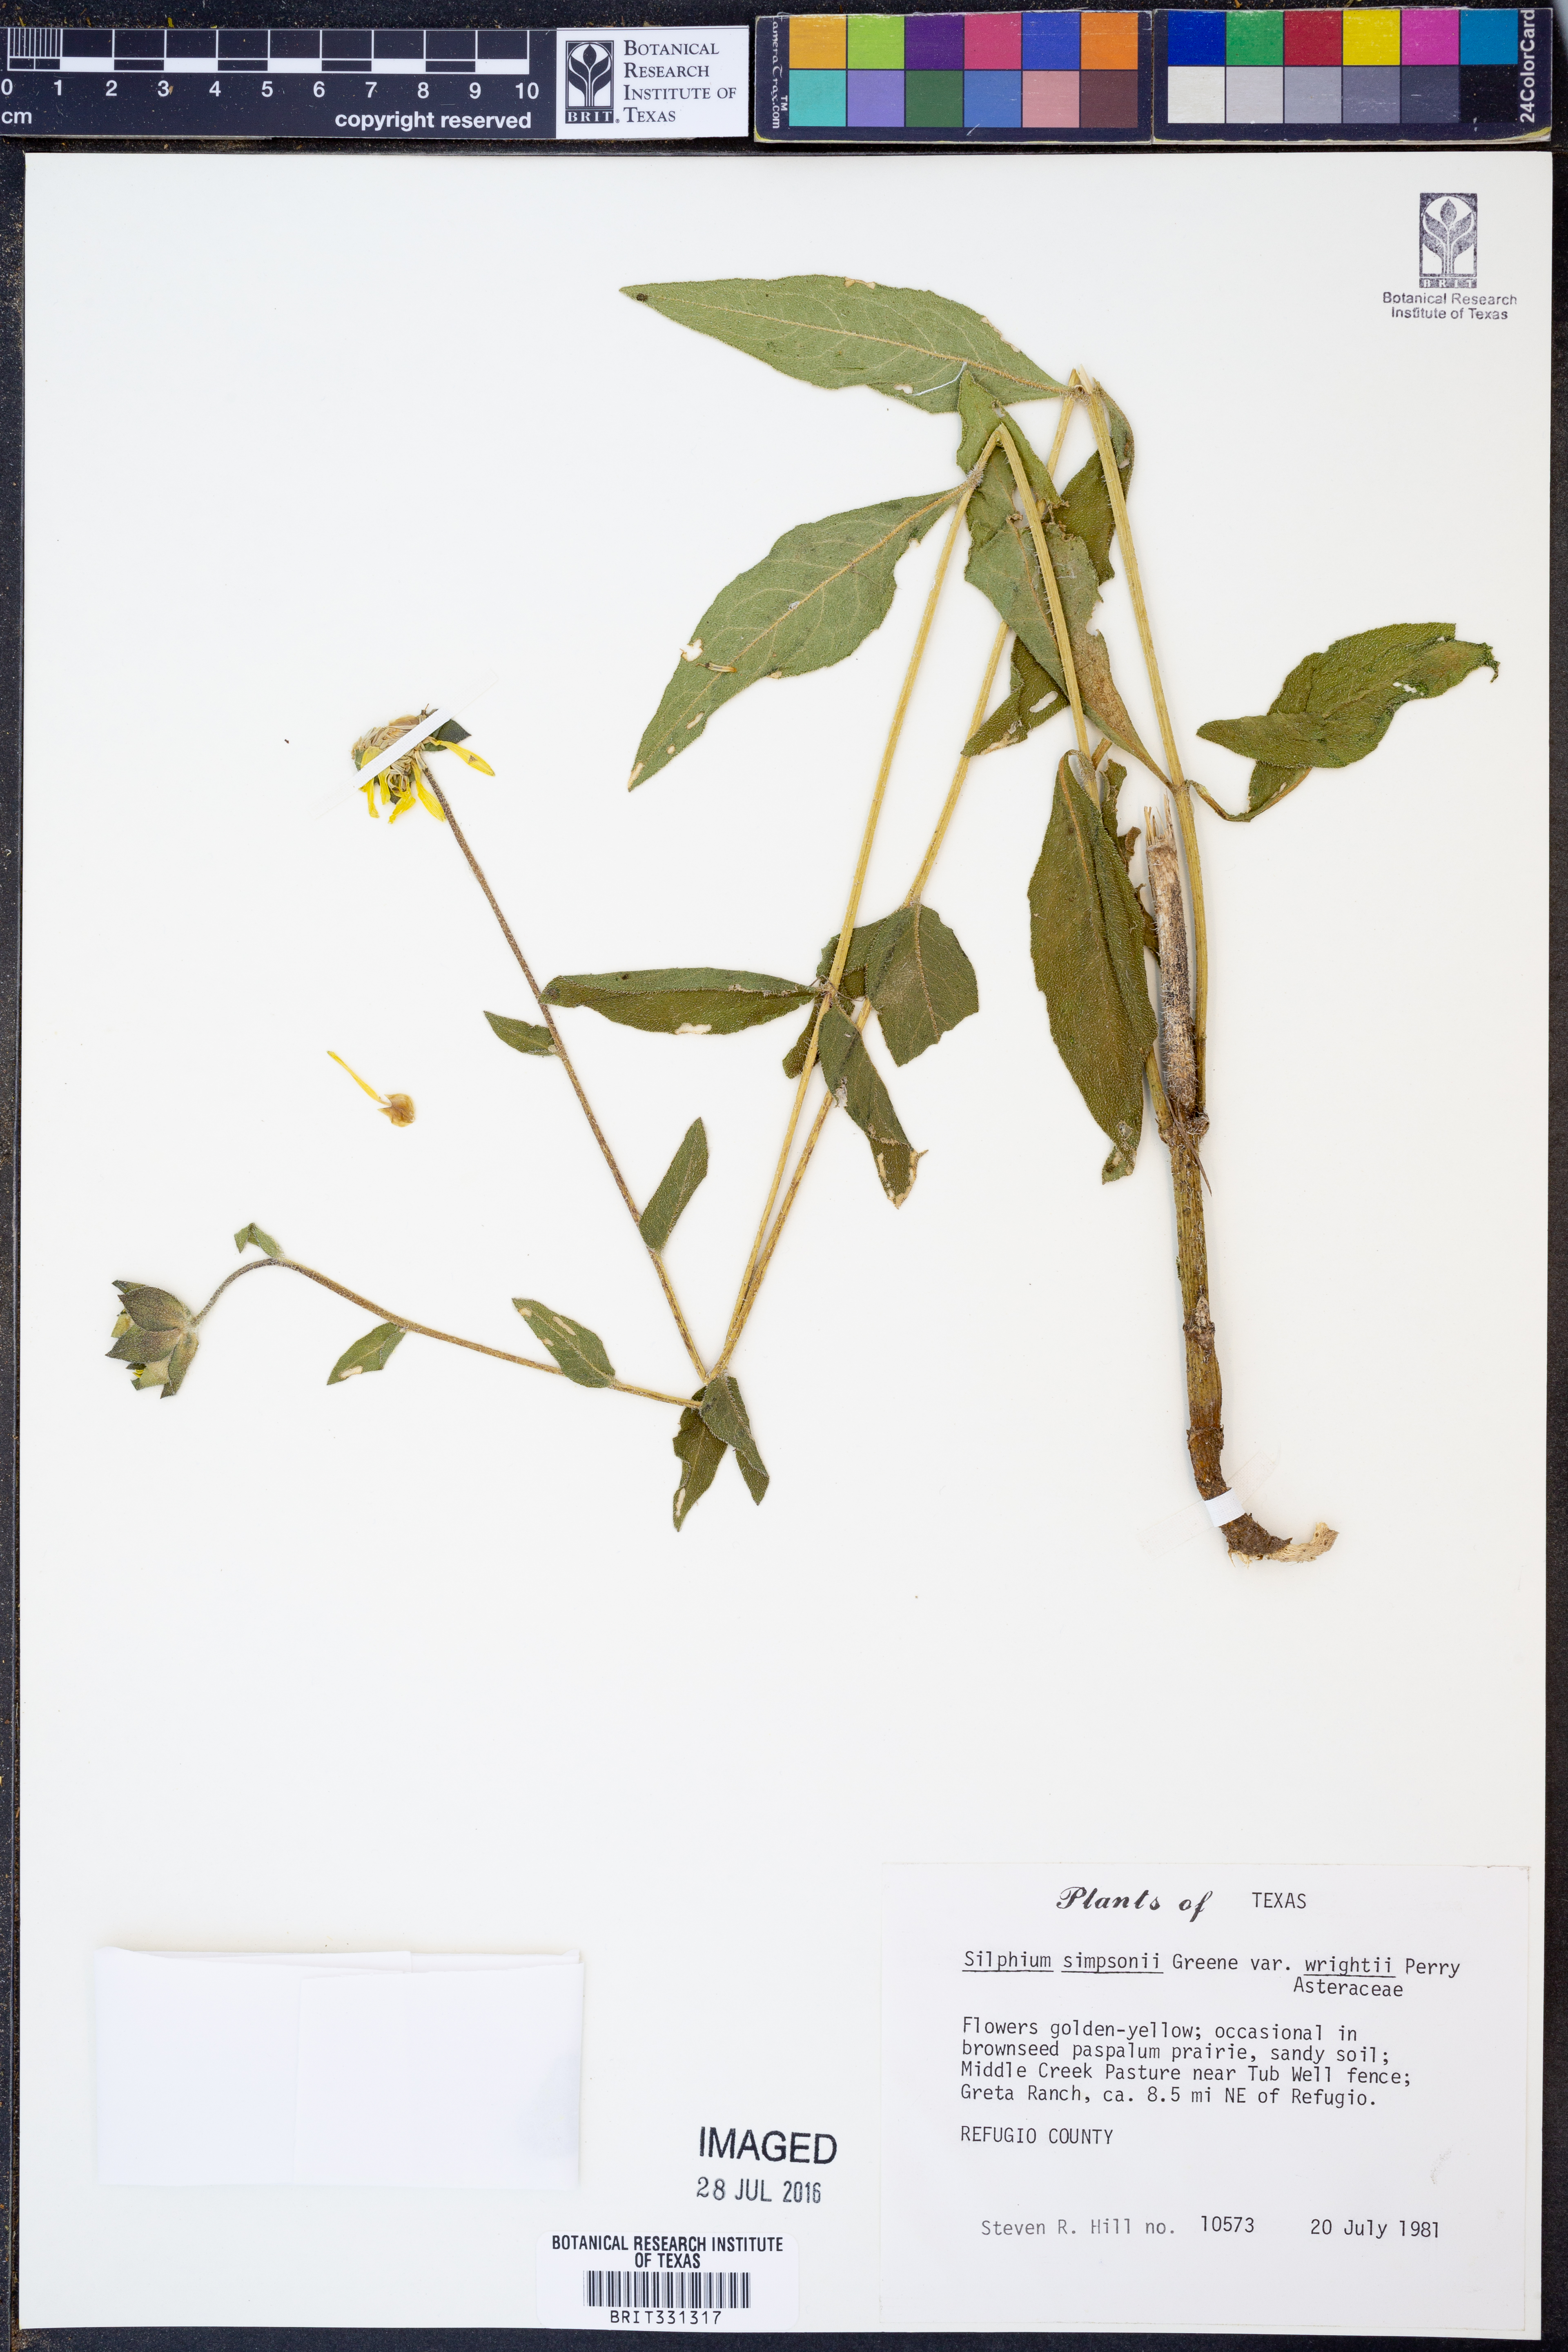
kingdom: Plantae
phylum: Tracheophyta
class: Magnoliopsida
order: Asterales
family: Asteraceae
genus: Silphium
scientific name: Silphium asteriscus
